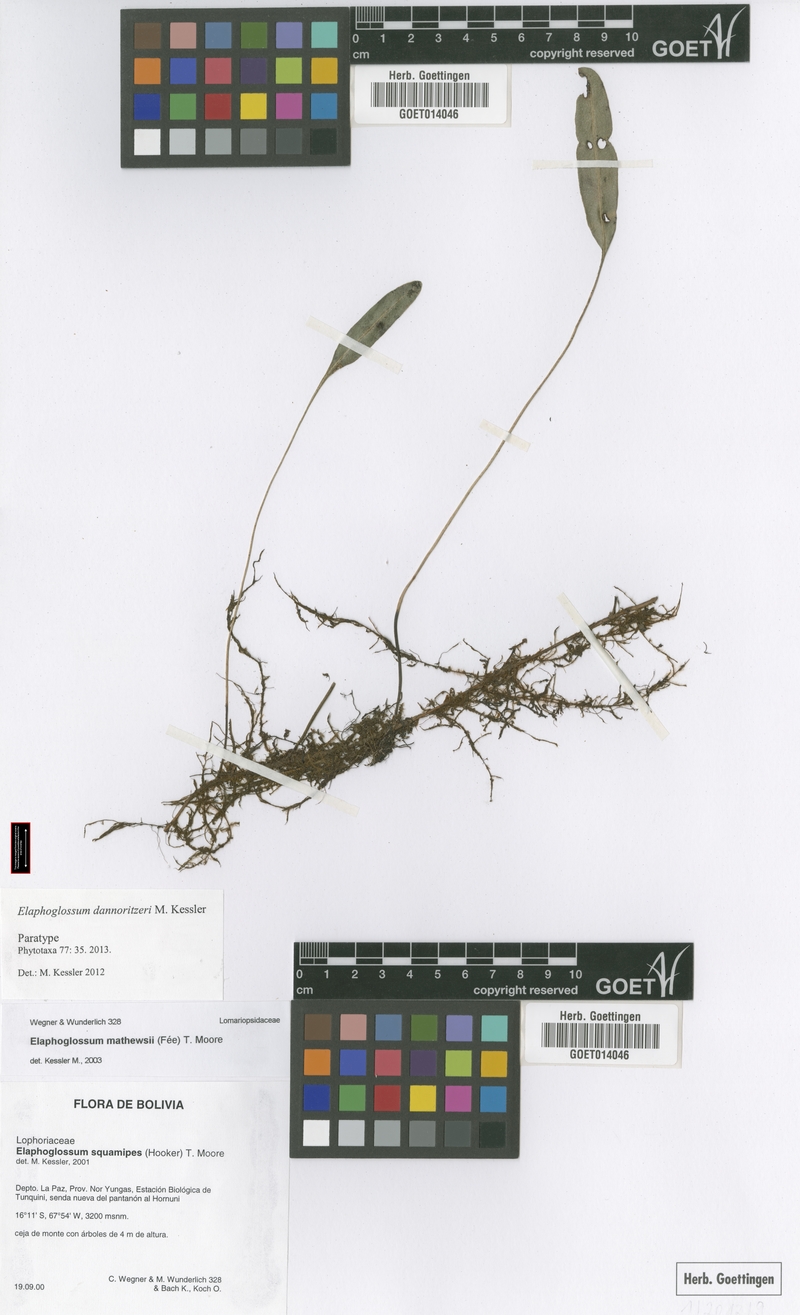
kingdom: Plantae
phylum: Tracheophyta
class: Polypodiopsida
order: Polypodiales
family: Dryopteridaceae
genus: Elaphoglossum
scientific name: Elaphoglossum dannoritzeri
